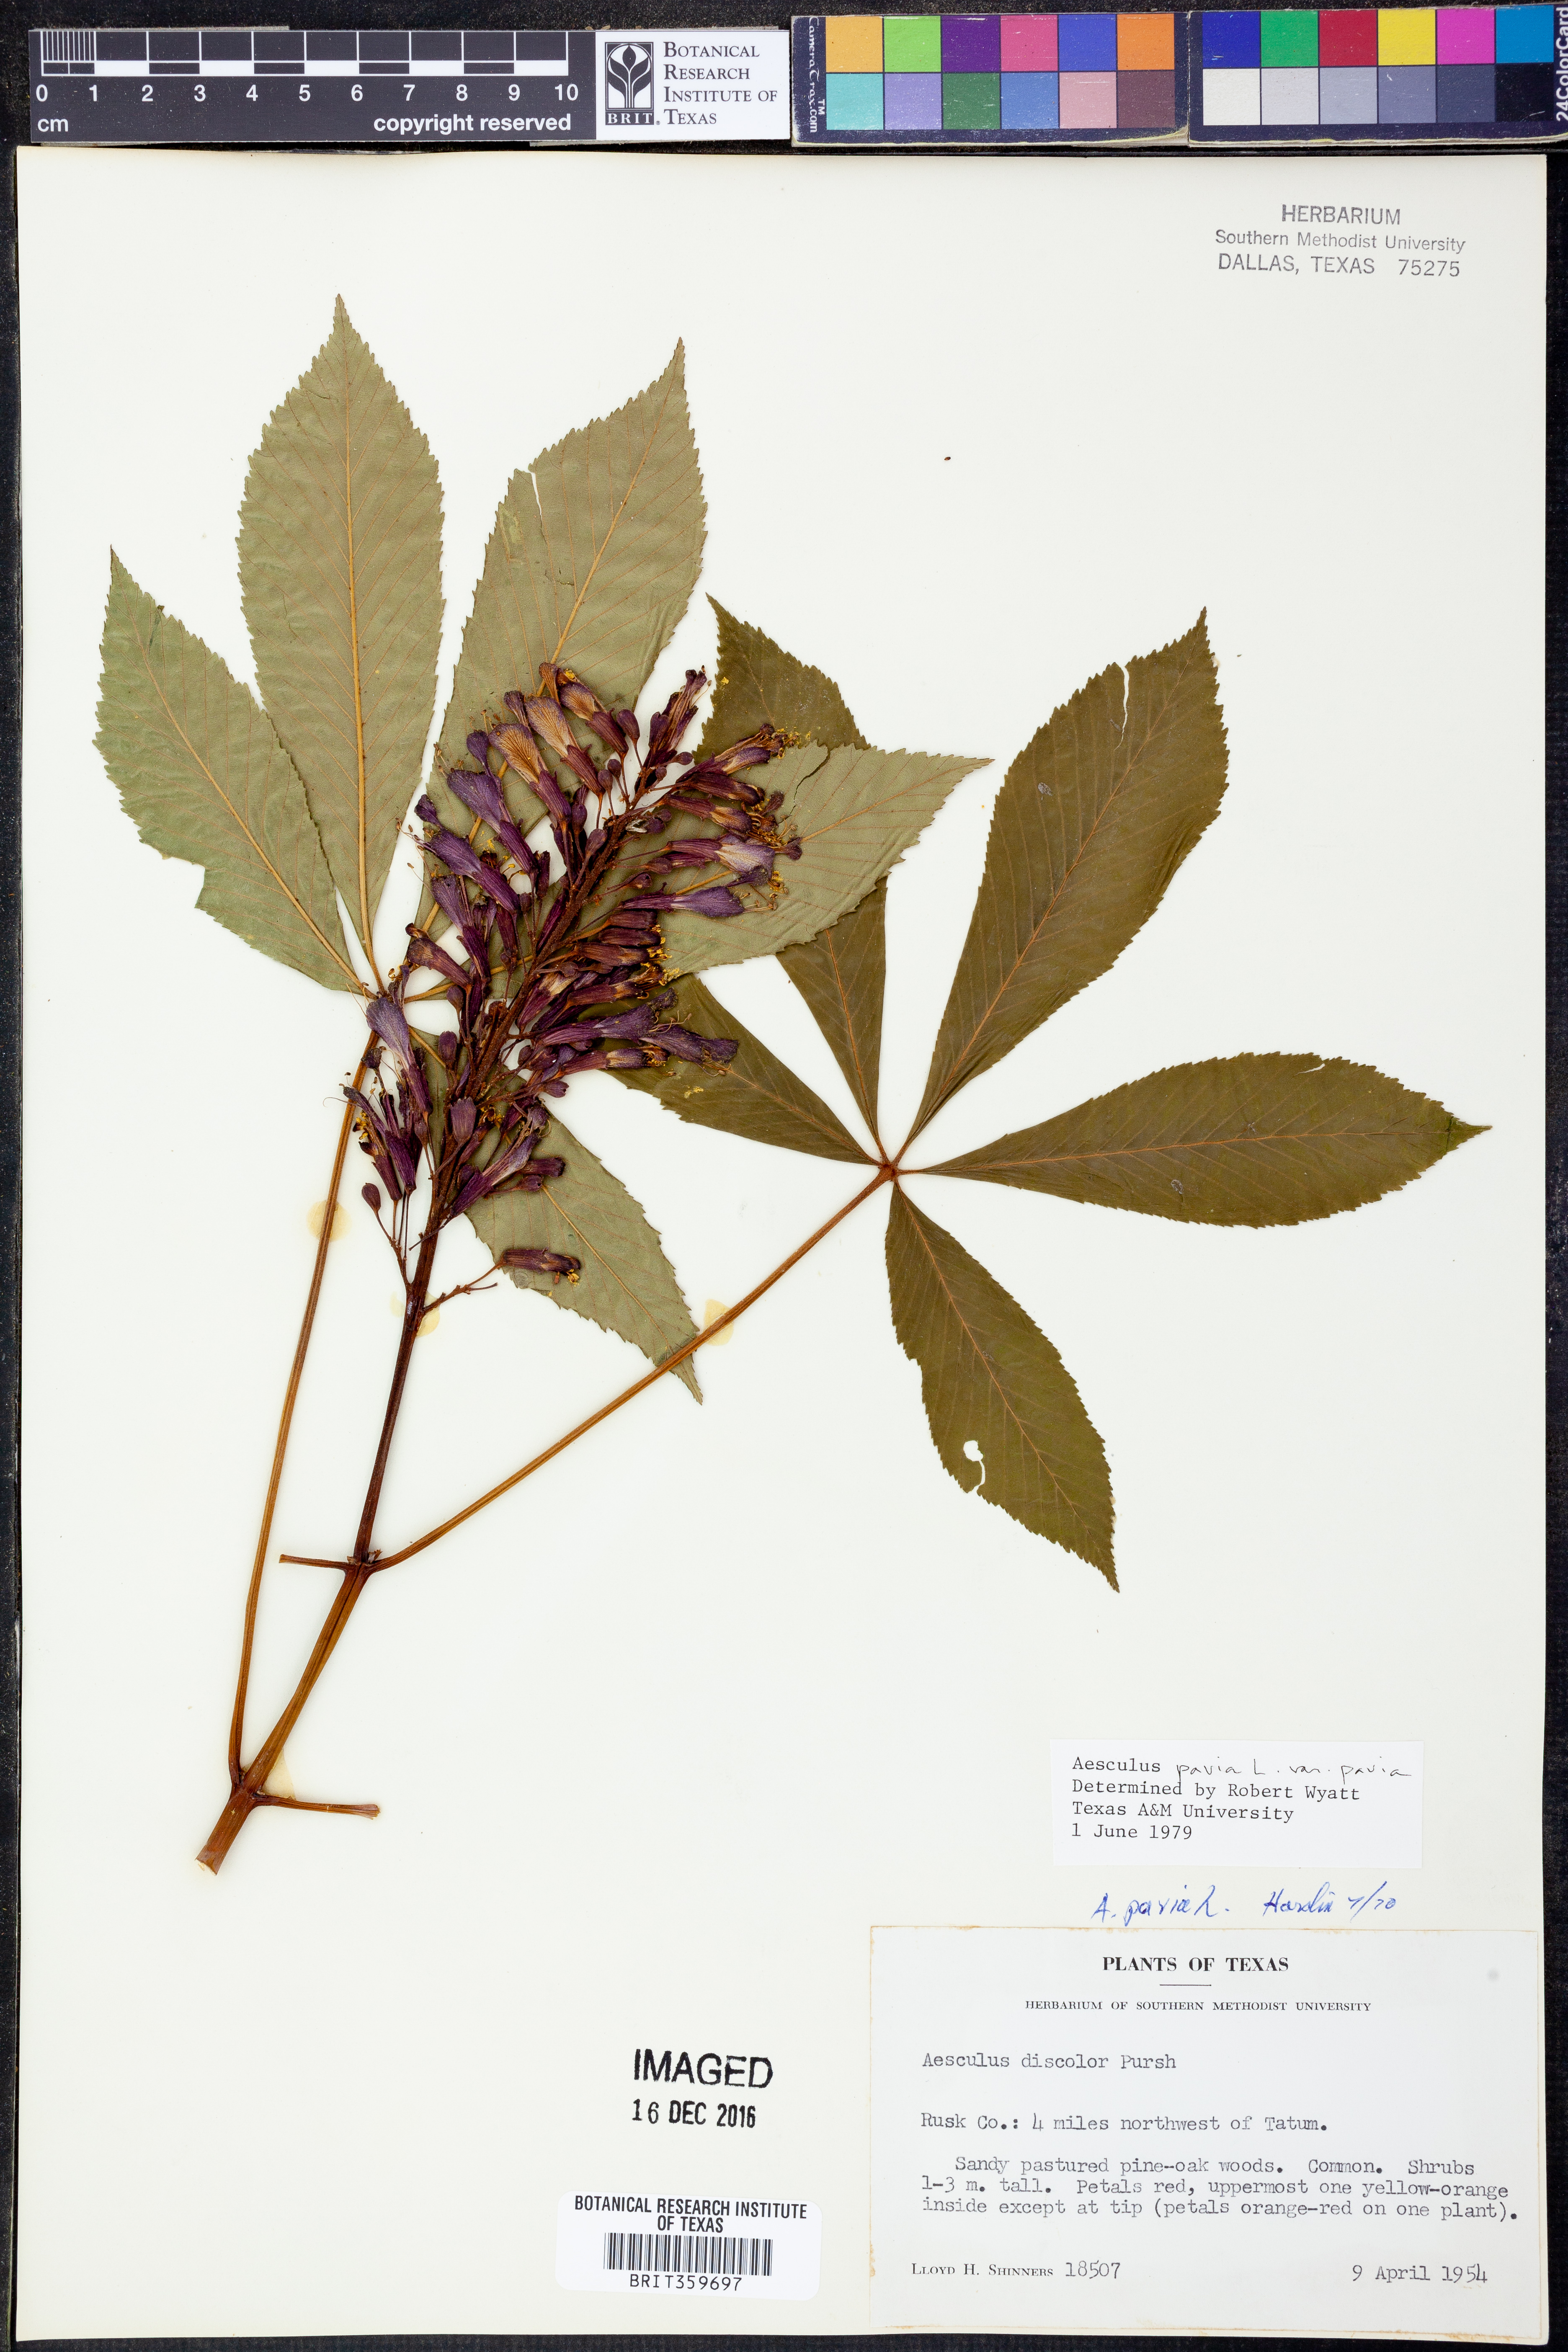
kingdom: Plantae
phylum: Tracheophyta
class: Magnoliopsida
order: Sapindales
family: Sapindaceae
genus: Aesculus
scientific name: Aesculus pavia
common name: Red buckeye
